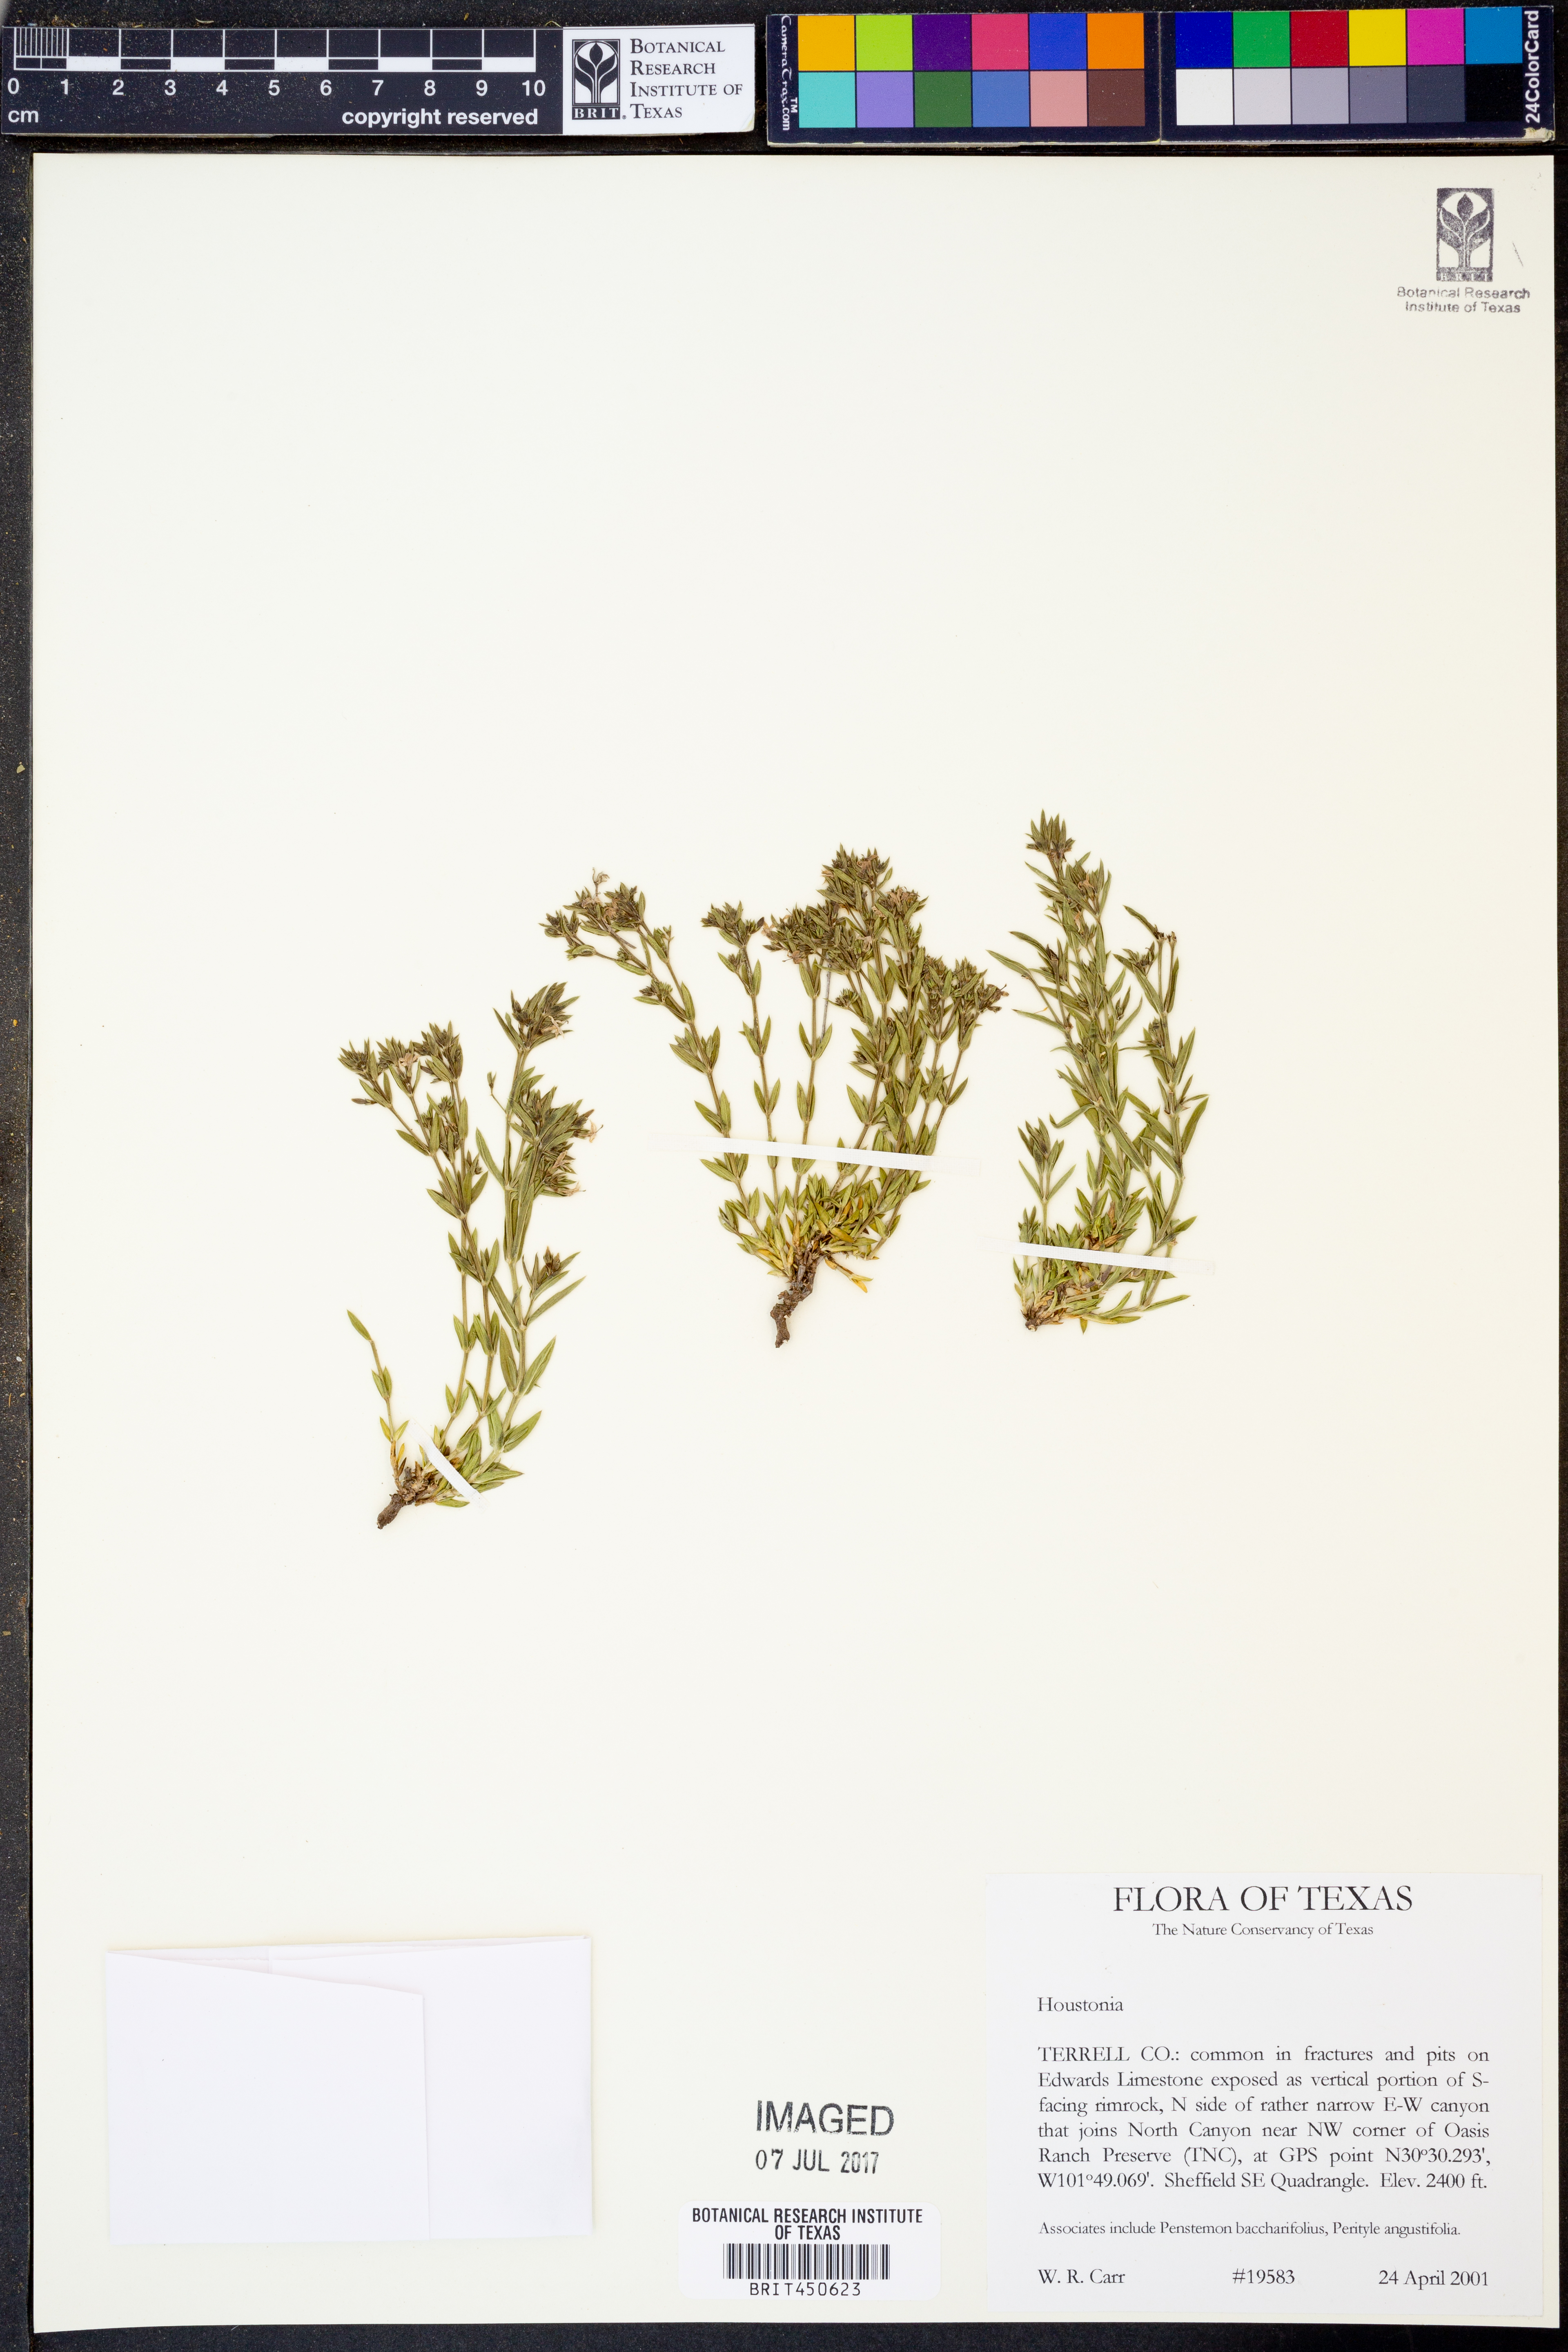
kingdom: Plantae
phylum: Tracheophyta
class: Magnoliopsida
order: Gentianales
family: Rubiaceae
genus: Houstonia
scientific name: Houstonia
